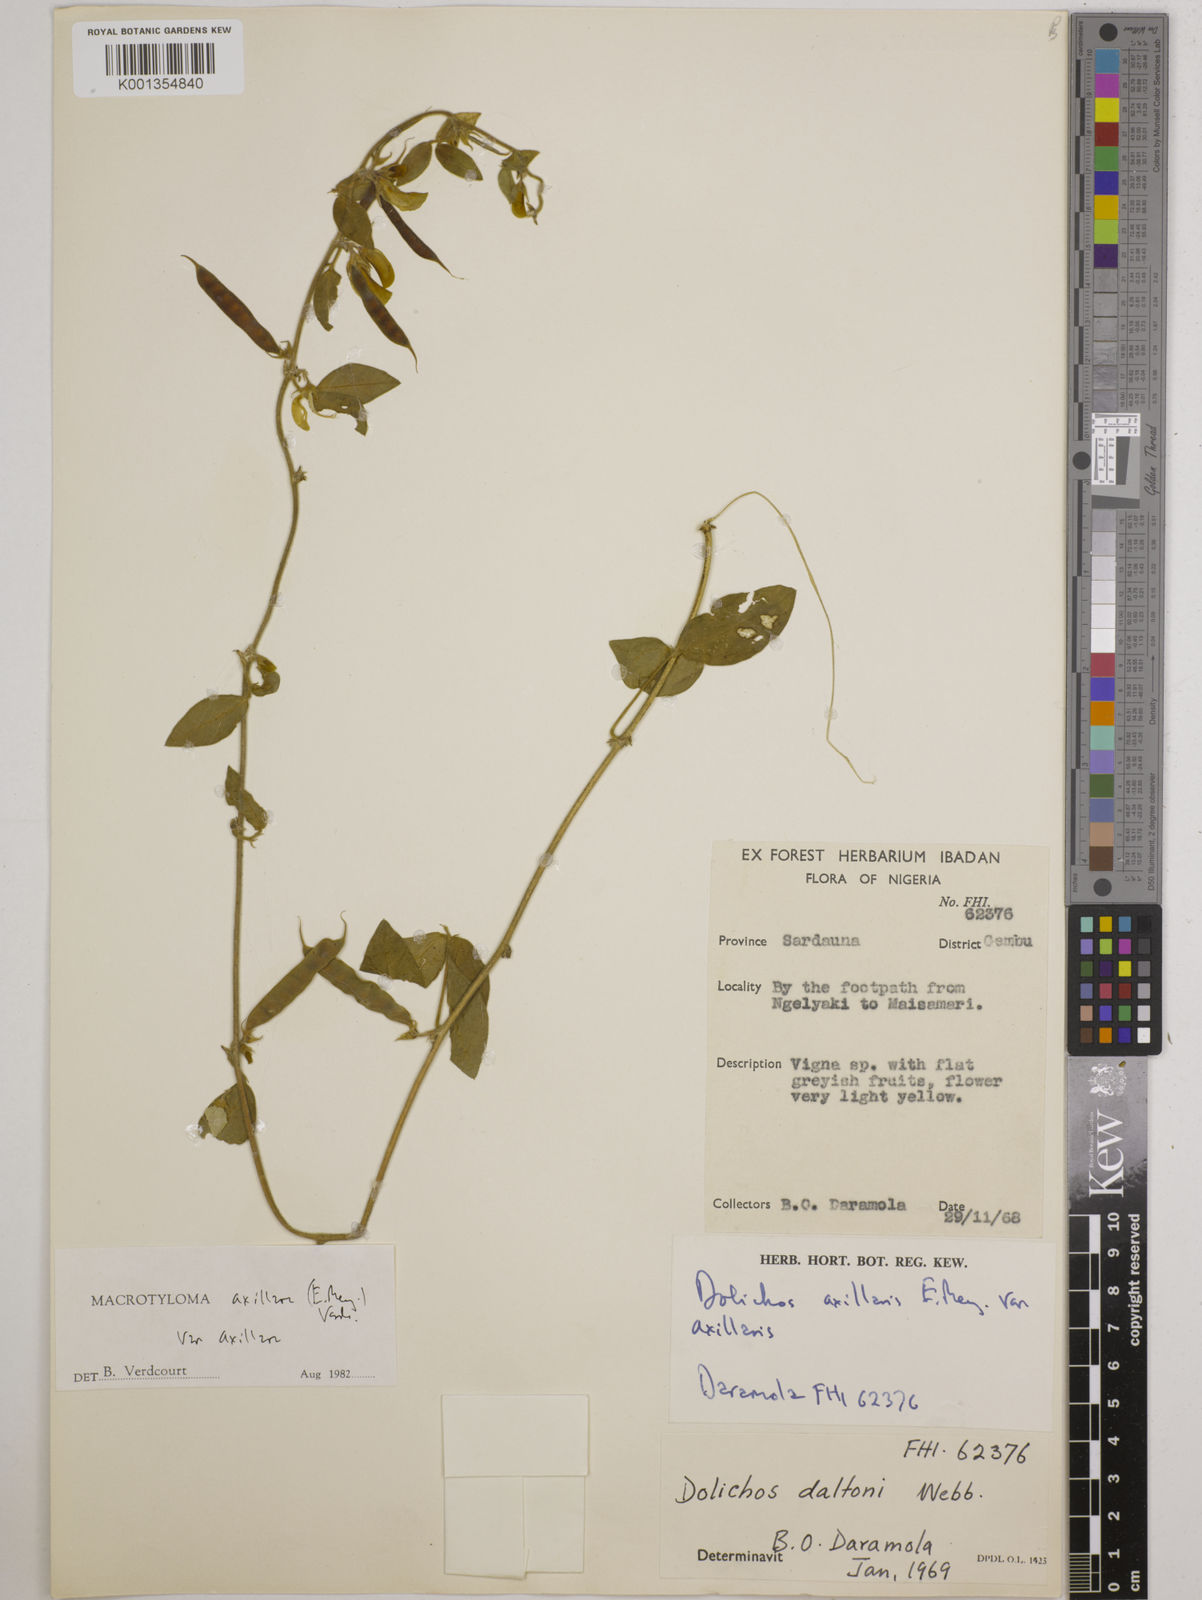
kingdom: Plantae
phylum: Tracheophyta
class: Magnoliopsida
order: Fabales
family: Fabaceae
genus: Macrotyloma
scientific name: Macrotyloma axillare
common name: Perennial horsegram
